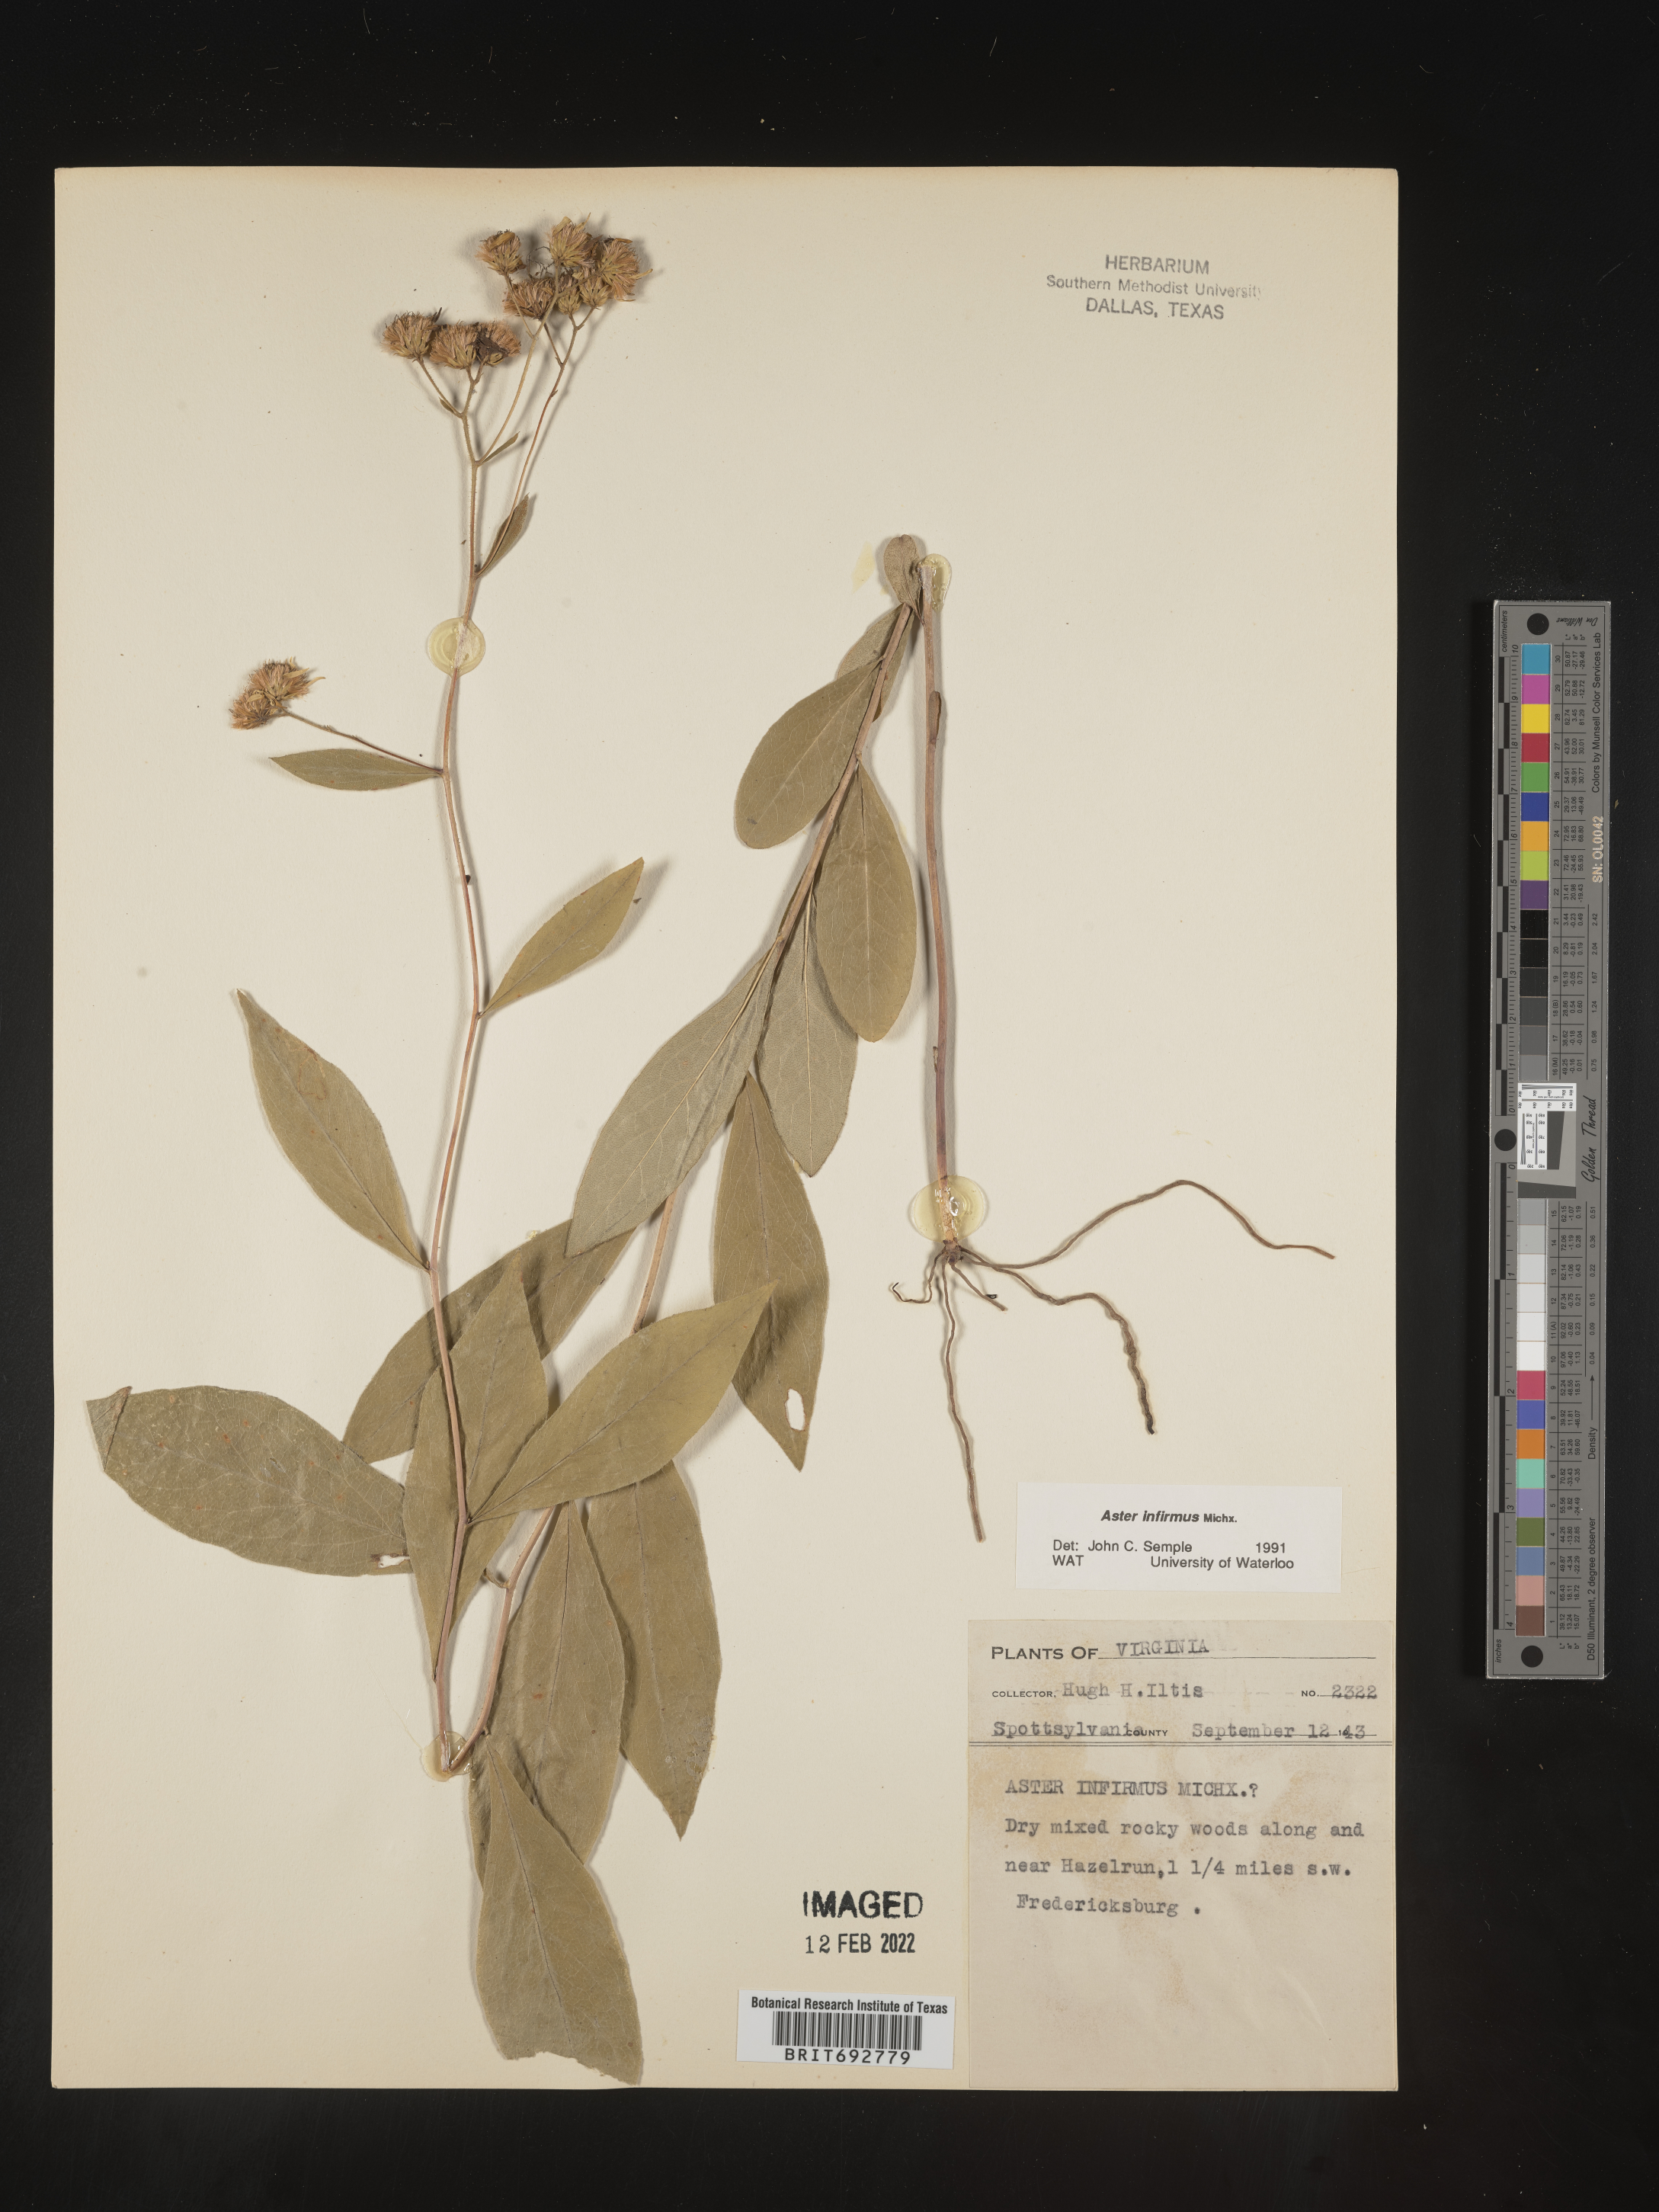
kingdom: Plantae
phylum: Tracheophyta
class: Magnoliopsida
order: Asterales
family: Asteraceae
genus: Doellingeria
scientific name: Doellingeria infirma
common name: Appalachian flat-top aster
